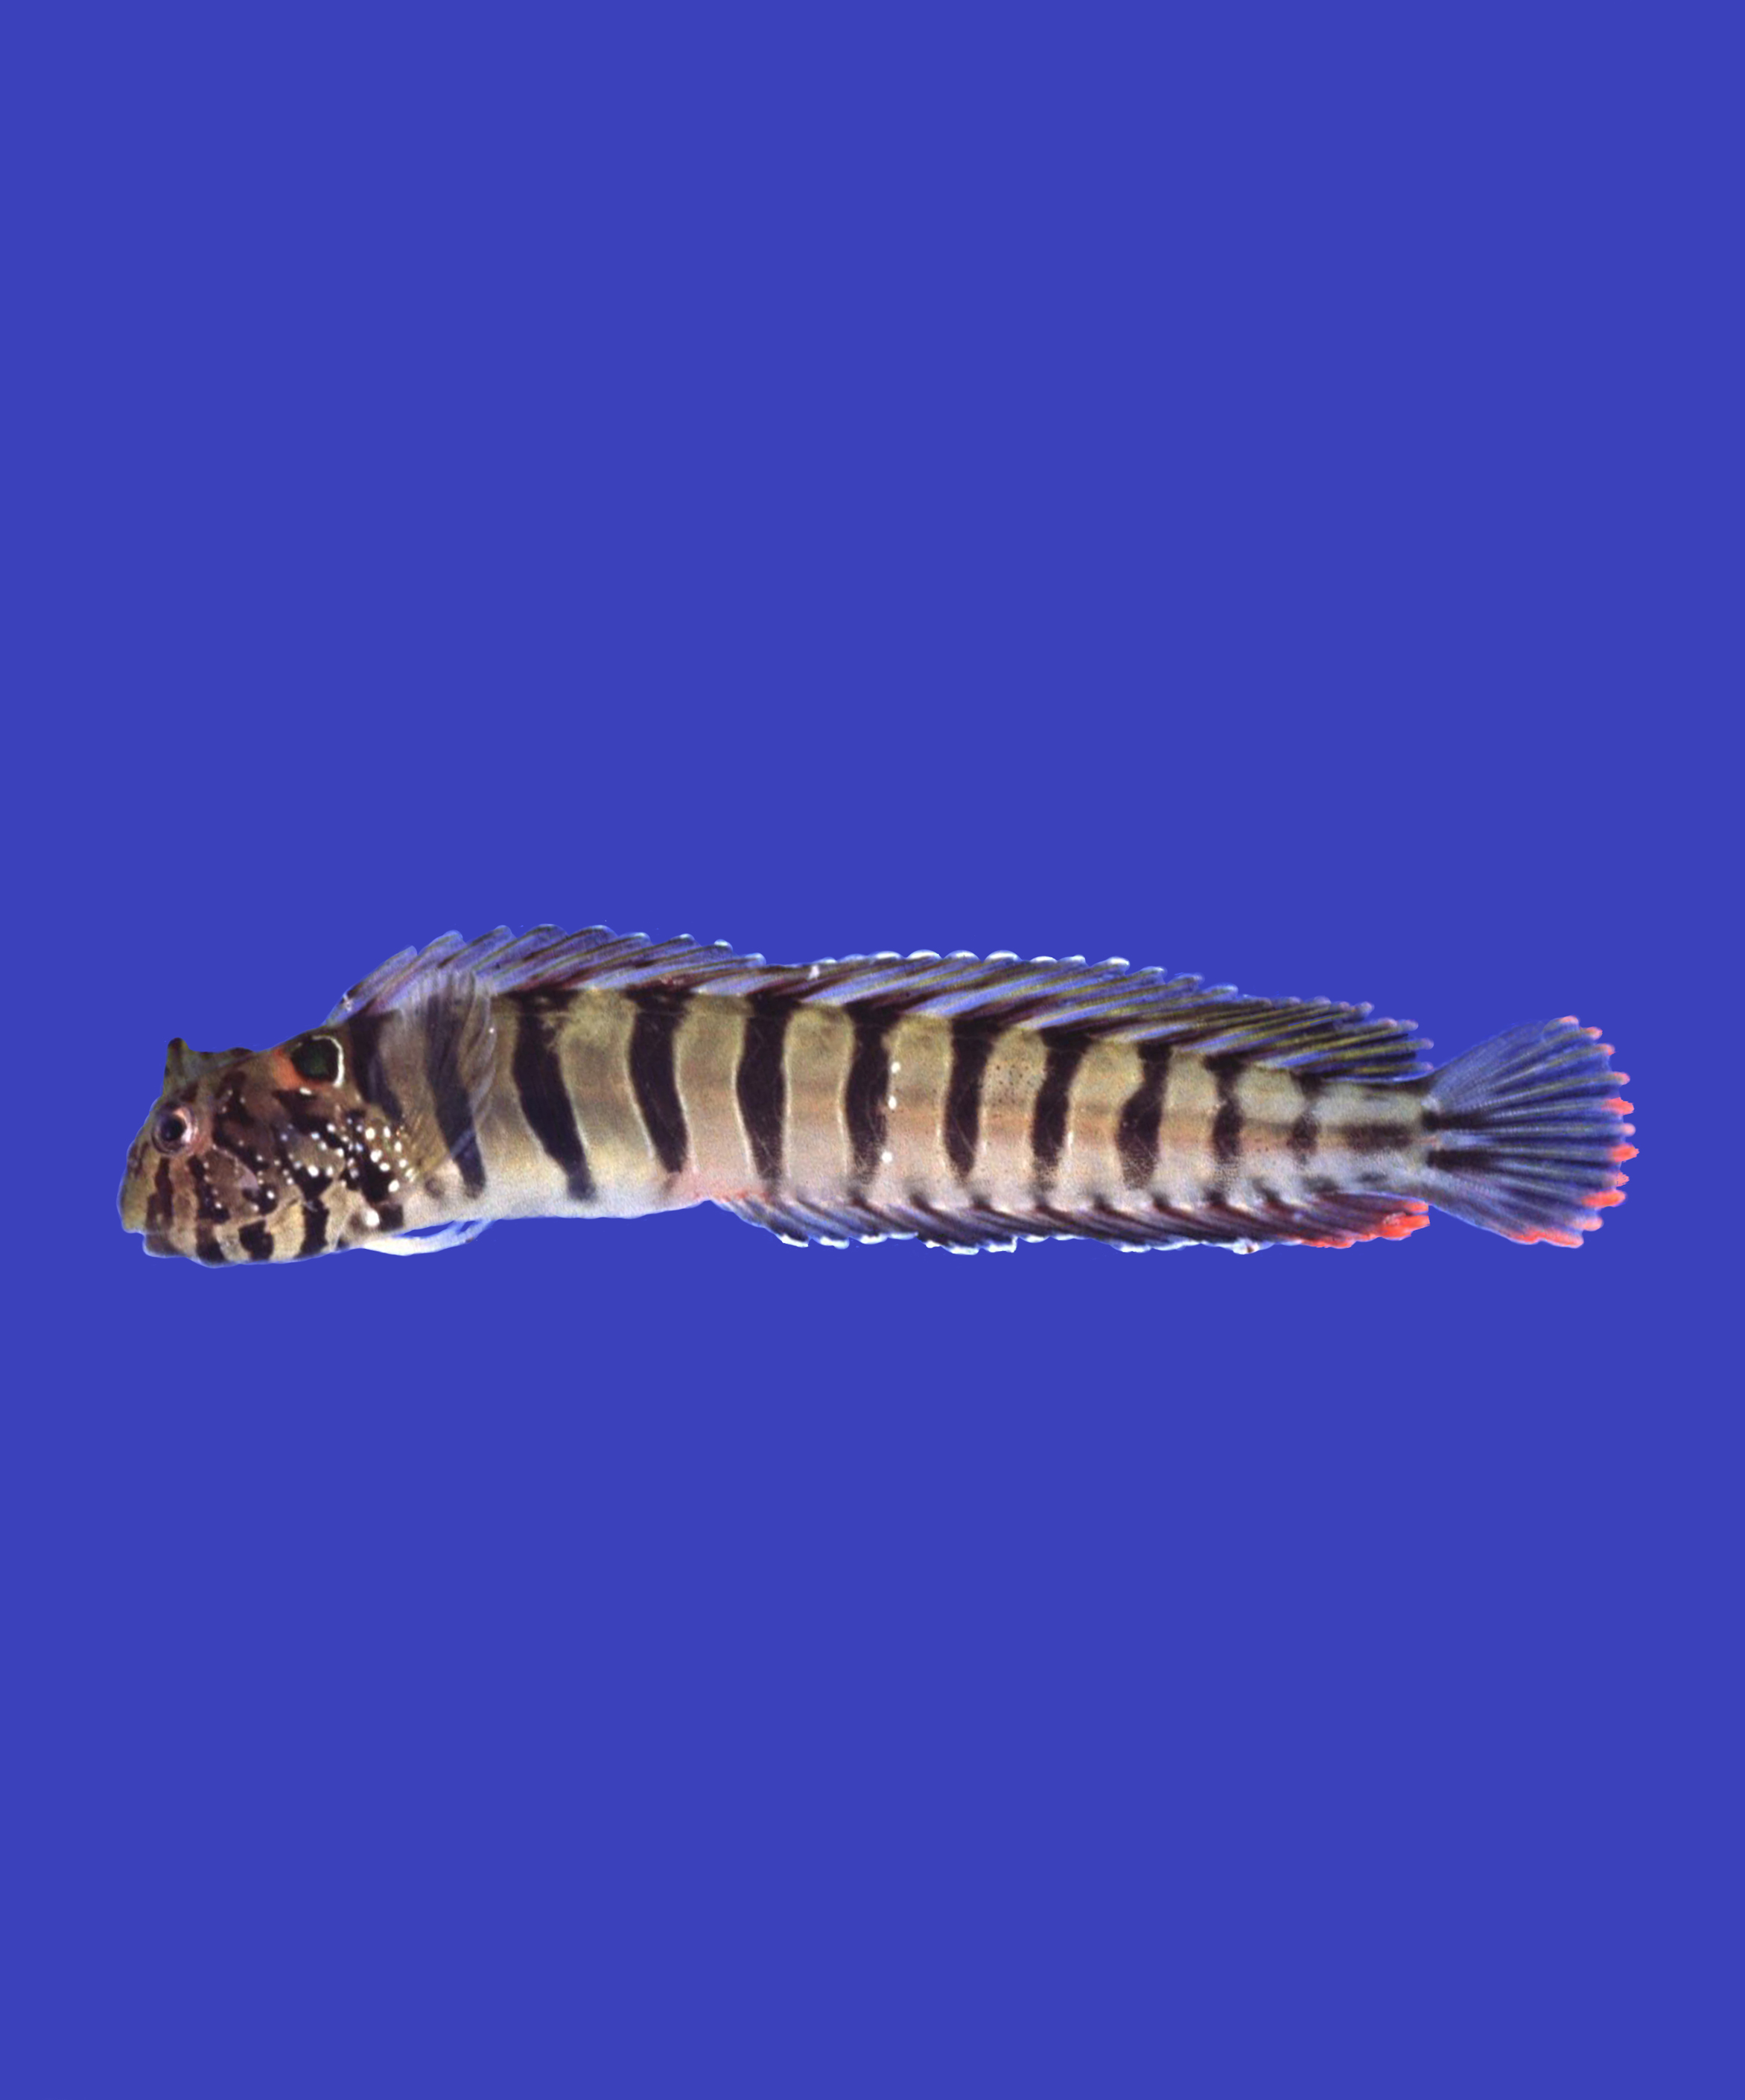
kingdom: Animalia
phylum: Chordata
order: Perciformes
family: Blenniidae
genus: Omobranchus
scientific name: Omobranchus banditus
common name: Bandit blenny
